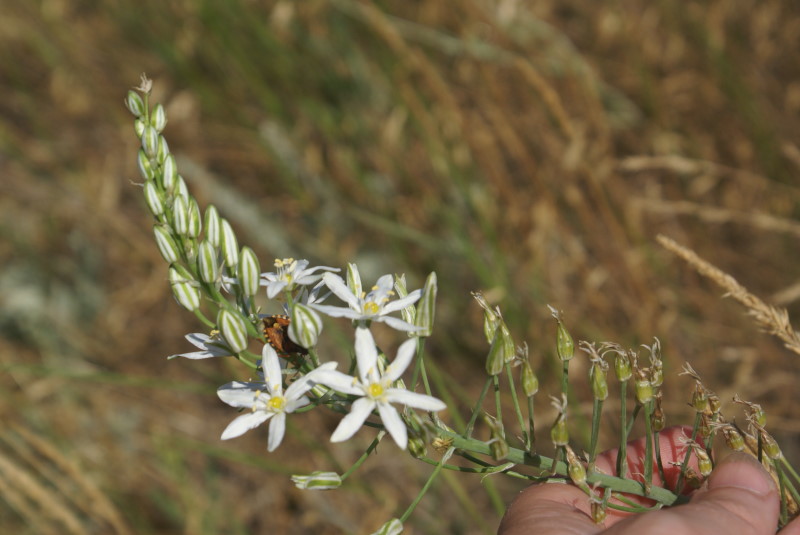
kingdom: Plantae
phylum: Tracheophyta
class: Liliopsida
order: Asparagales
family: Asparagaceae
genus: Ornithogalum
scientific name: Ornithogalum ponticum
